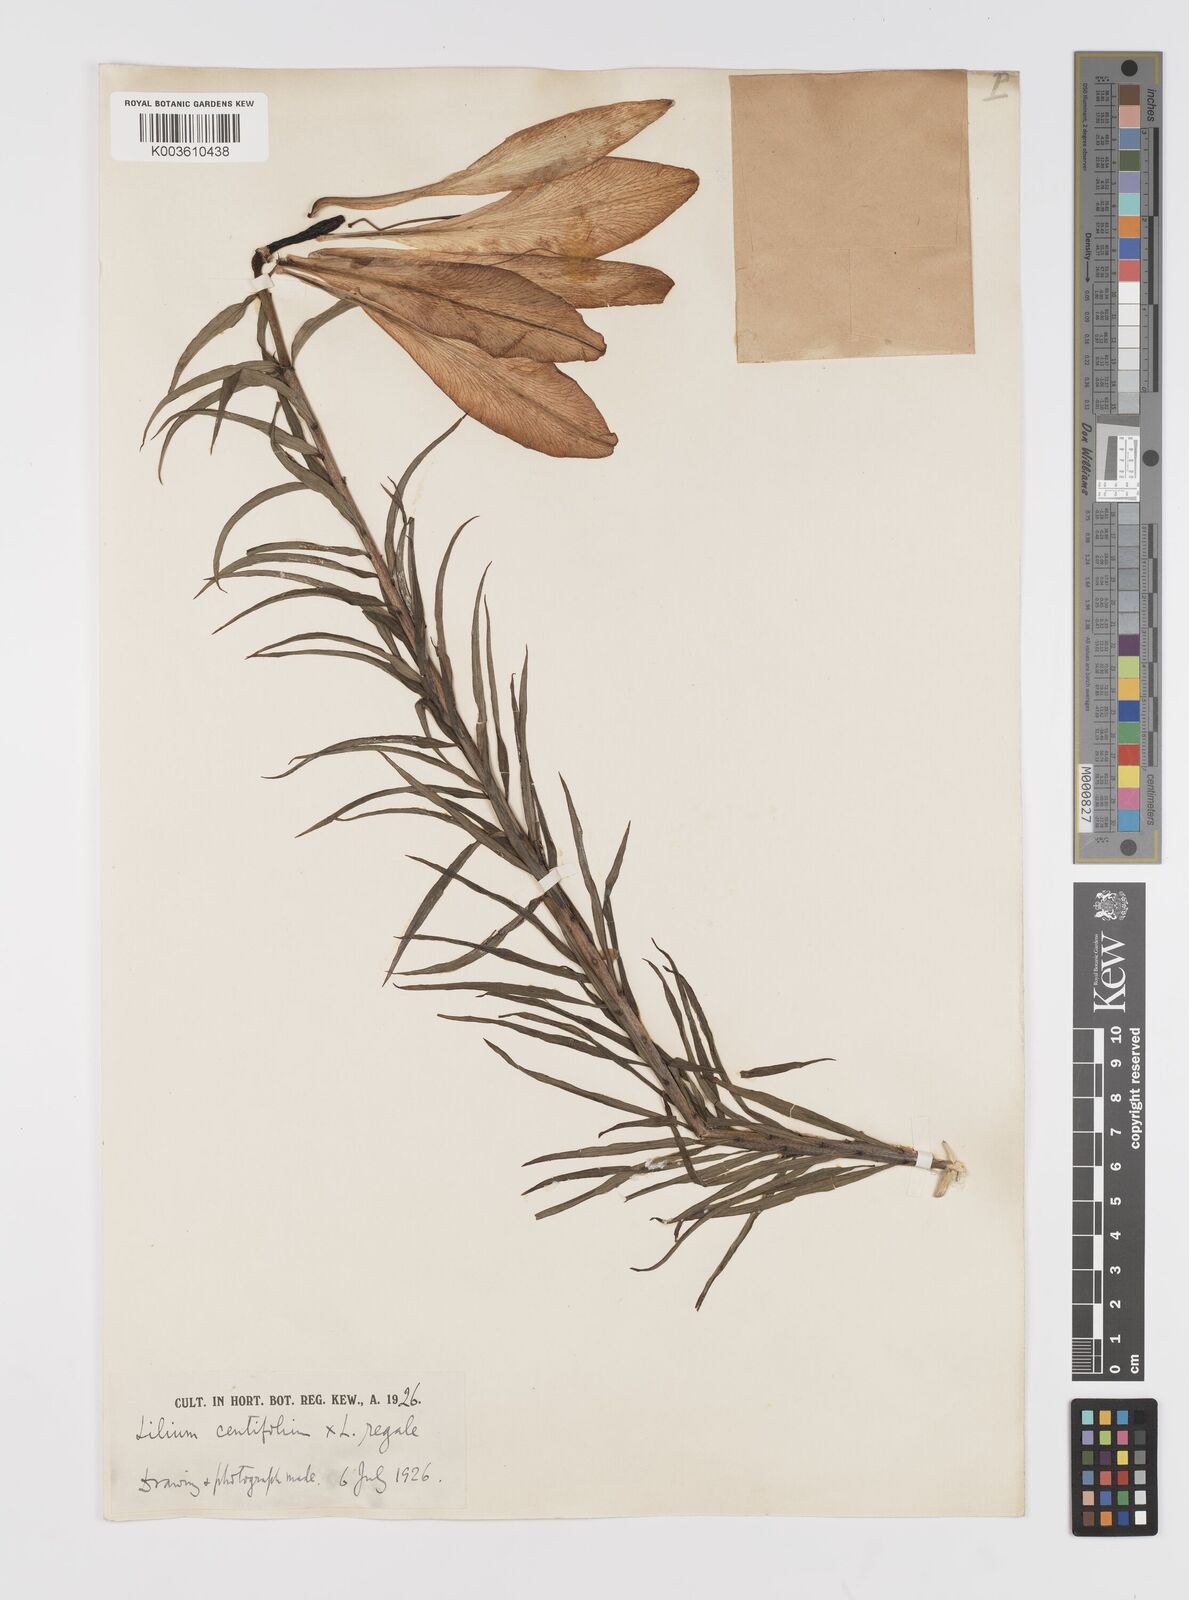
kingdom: Plantae
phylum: Tracheophyta
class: Liliopsida
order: Liliales
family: Liliaceae
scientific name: Liliaceae
